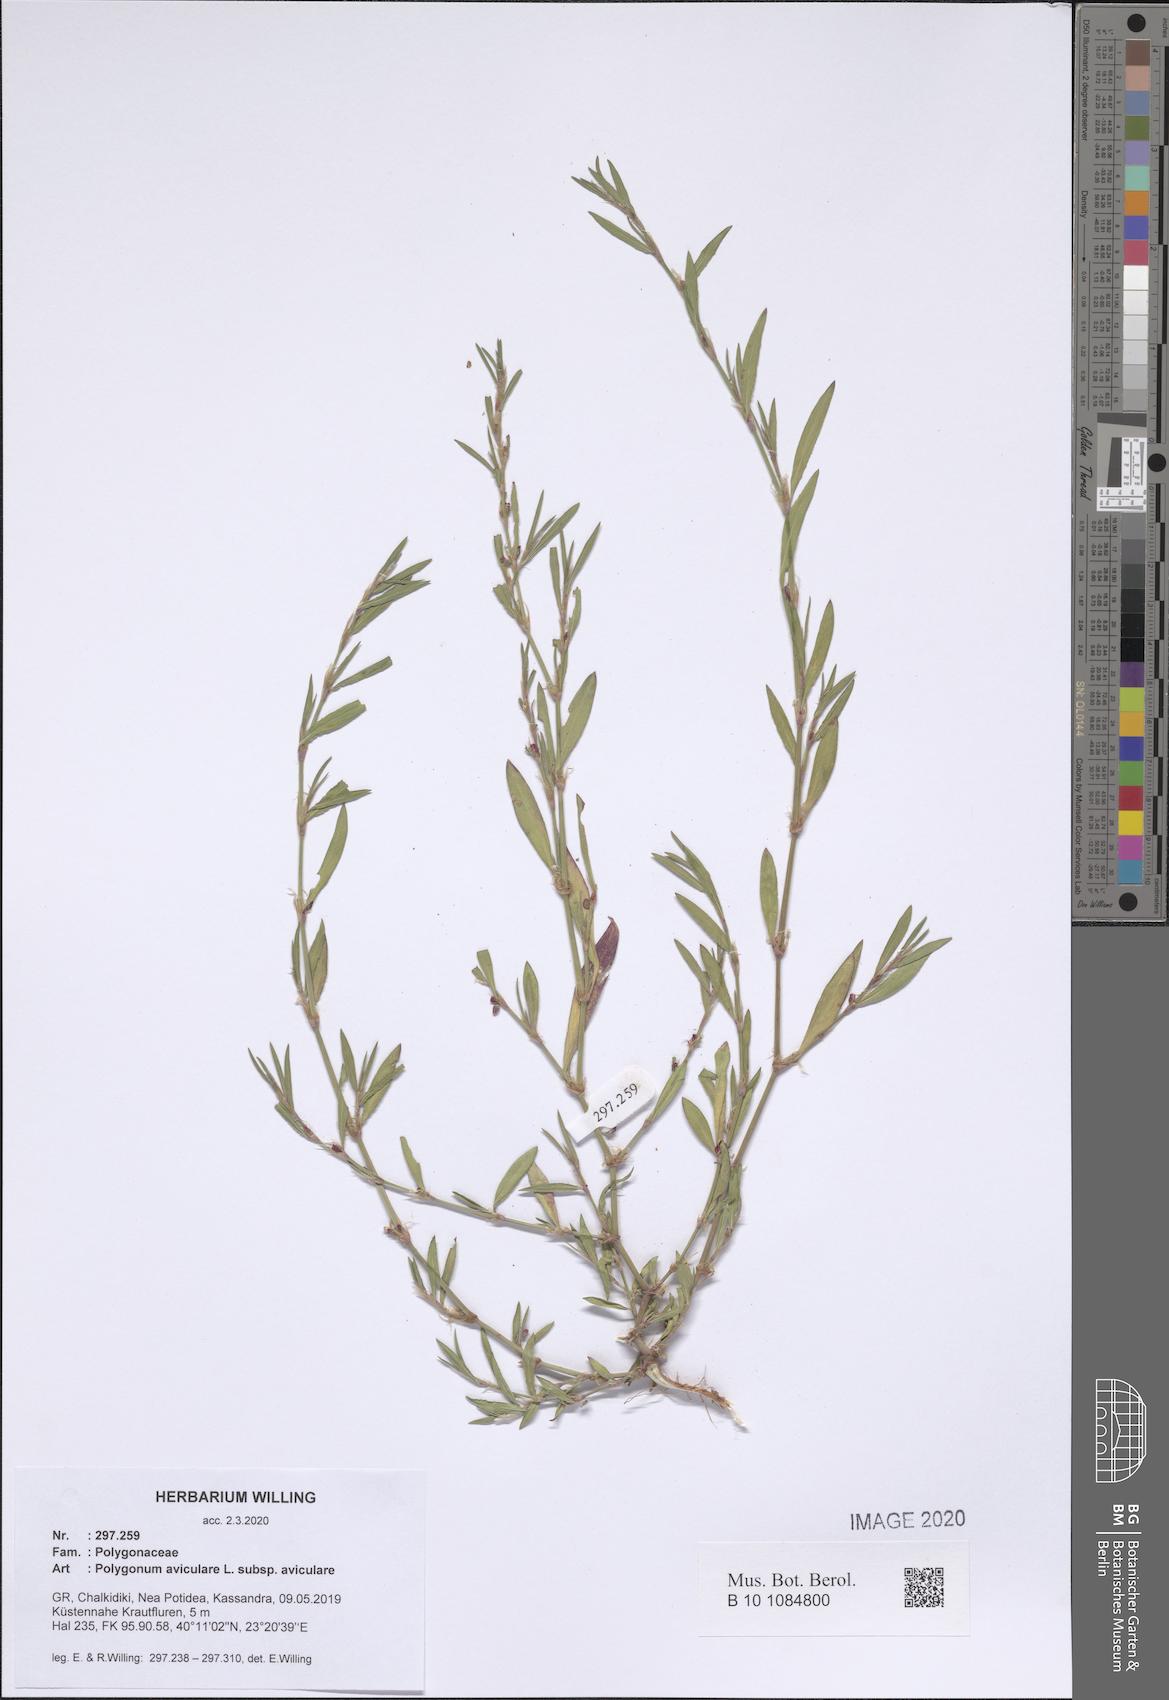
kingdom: Plantae
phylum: Tracheophyta
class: Magnoliopsida
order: Caryophyllales
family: Polygonaceae
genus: Polygonum
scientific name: Polygonum aviculare
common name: Prostrate knotweed
